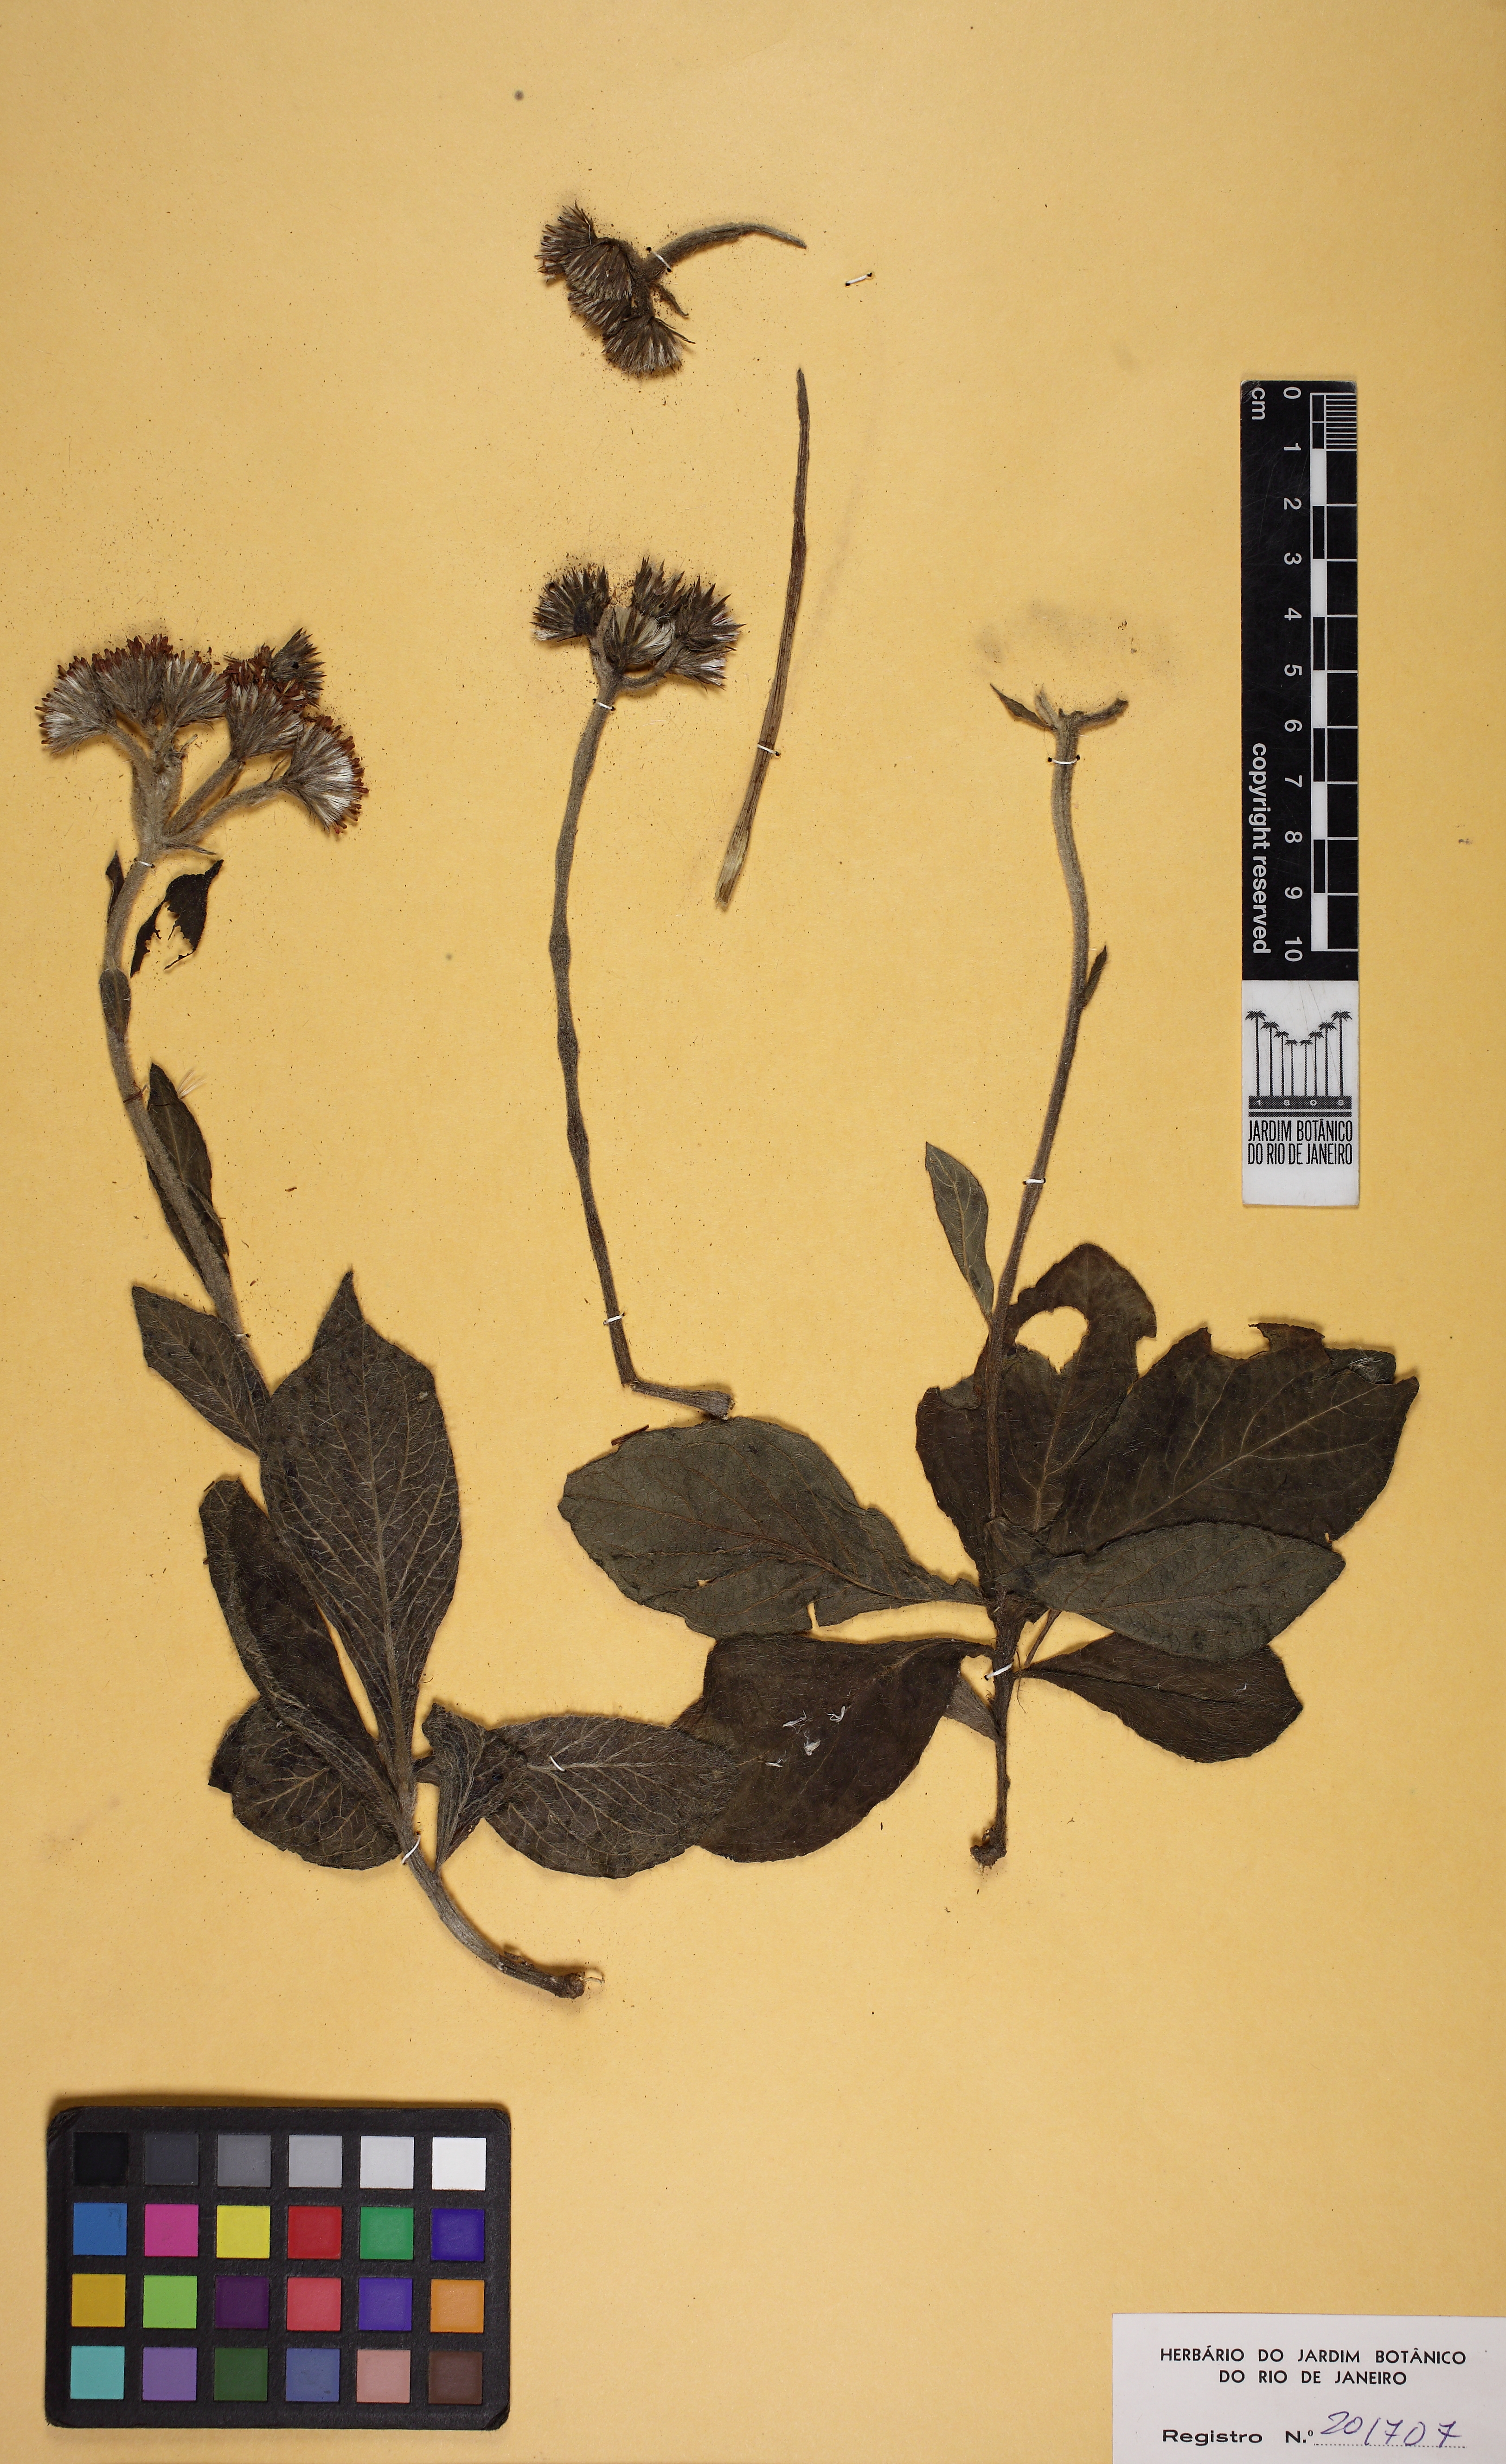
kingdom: Plantae
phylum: Tracheophyta
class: Magnoliopsida
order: Asterales
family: Asteraceae
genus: Lessingianthus
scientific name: Lessingianthus hypochaeris
